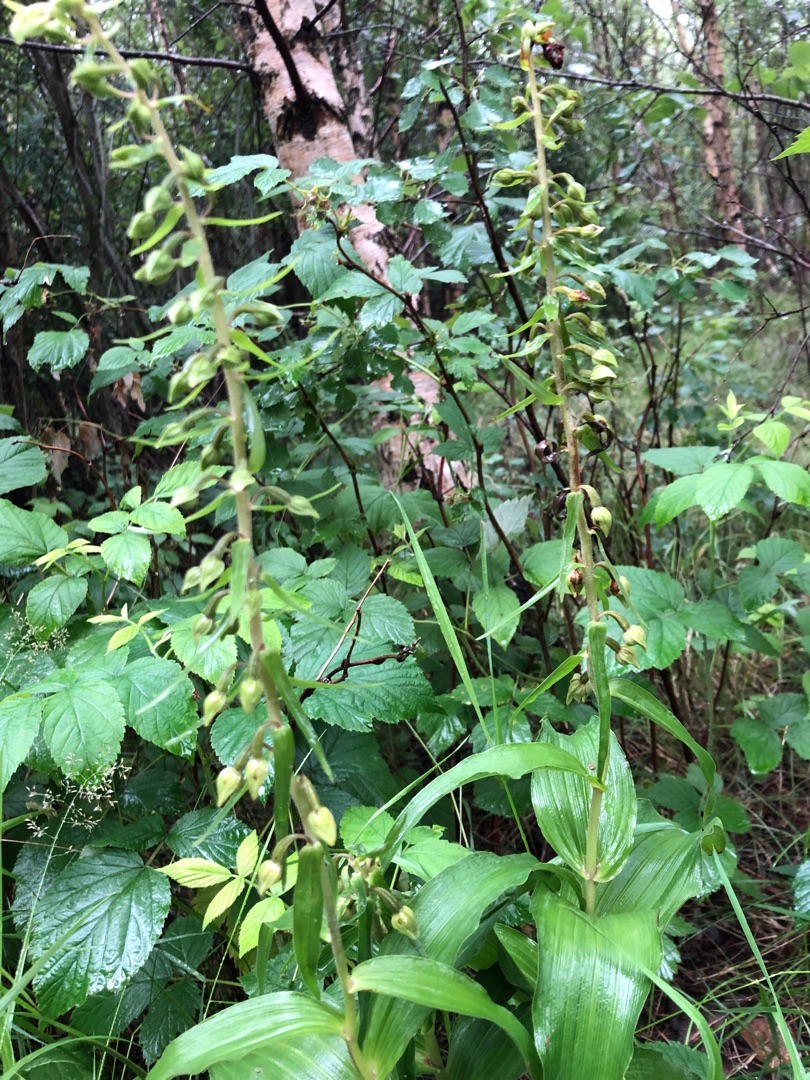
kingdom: Plantae
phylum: Tracheophyta
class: Liliopsida
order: Asparagales
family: Orchidaceae
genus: Epipactis
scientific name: Epipactis helleborine
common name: Skov-hullæbe
